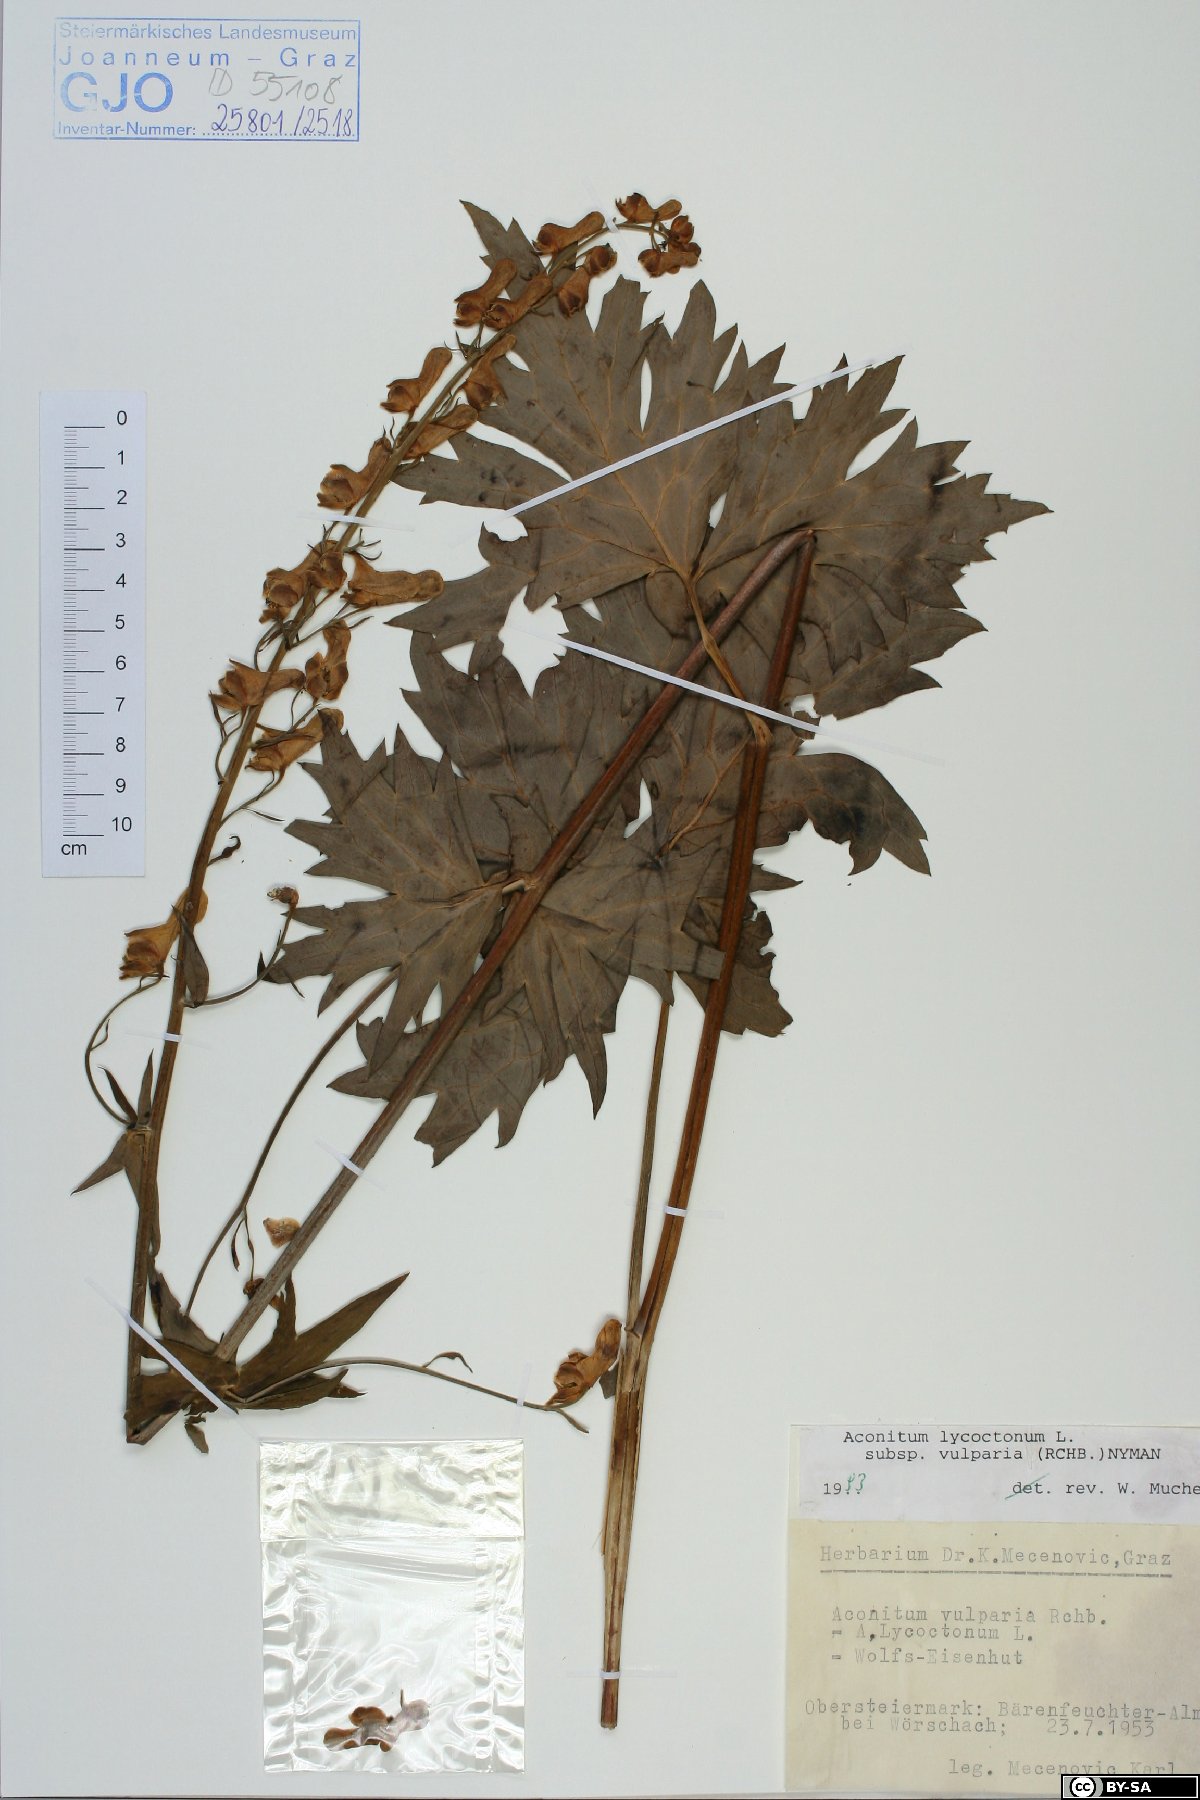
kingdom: Plantae
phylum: Tracheophyta
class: Magnoliopsida
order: Ranunculales
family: Ranunculaceae
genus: Aconitum
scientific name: Aconitum lycoctonum
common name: Wolf's-bane
